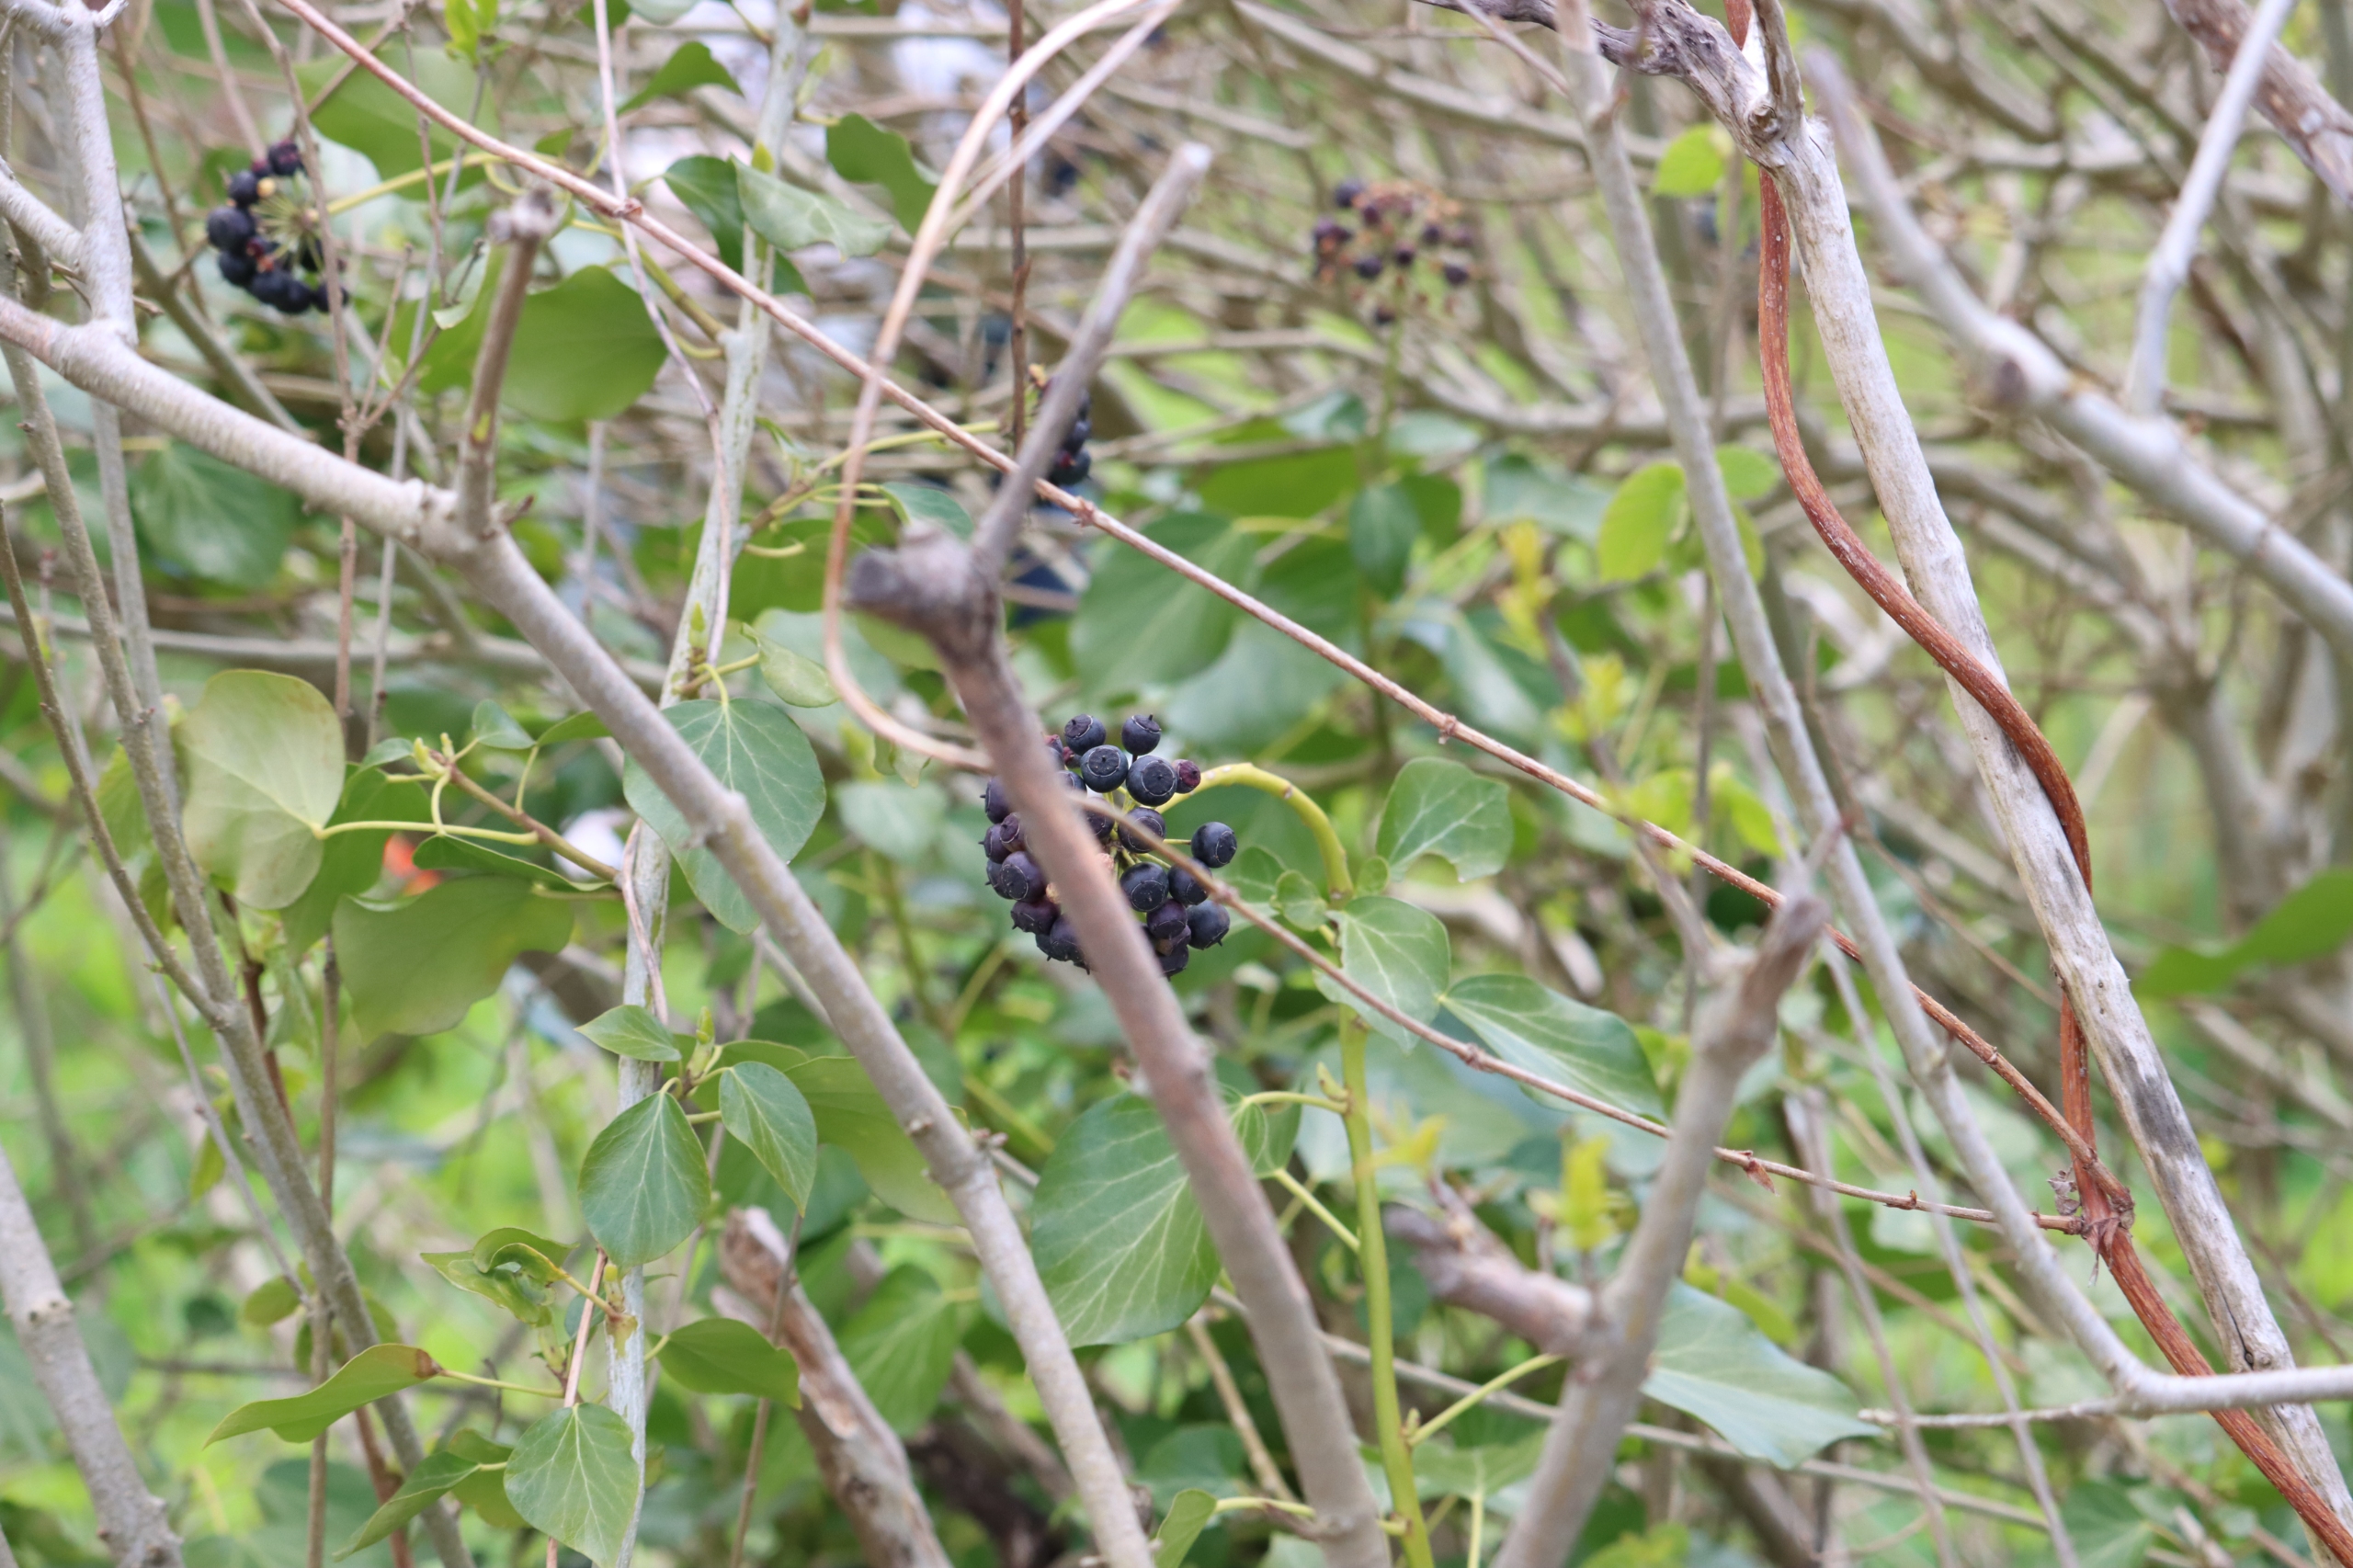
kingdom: Plantae
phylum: Tracheophyta
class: Magnoliopsida
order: Apiales
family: Araliaceae
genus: Hedera
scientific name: Hedera helix
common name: Vedbend
